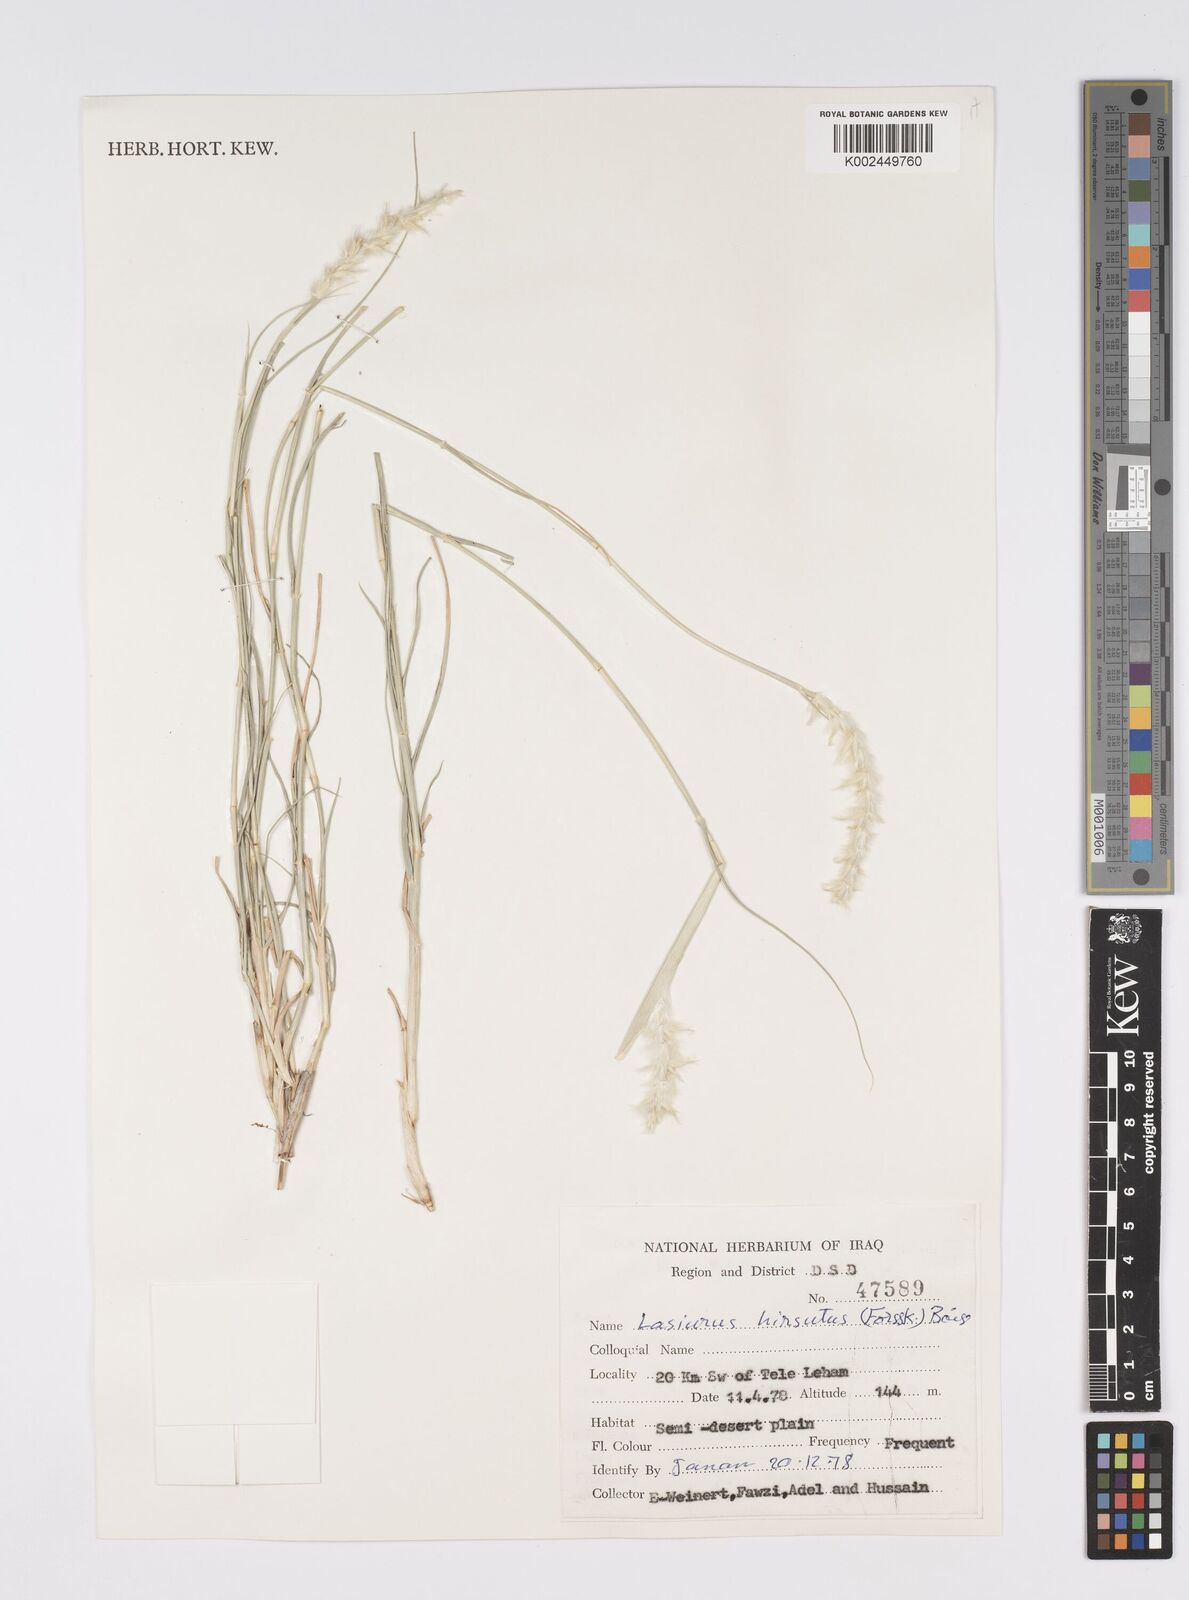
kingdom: Plantae
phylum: Tracheophyta
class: Liliopsida
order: Poales
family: Poaceae
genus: Lasiurus
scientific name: Lasiurus scindicus
